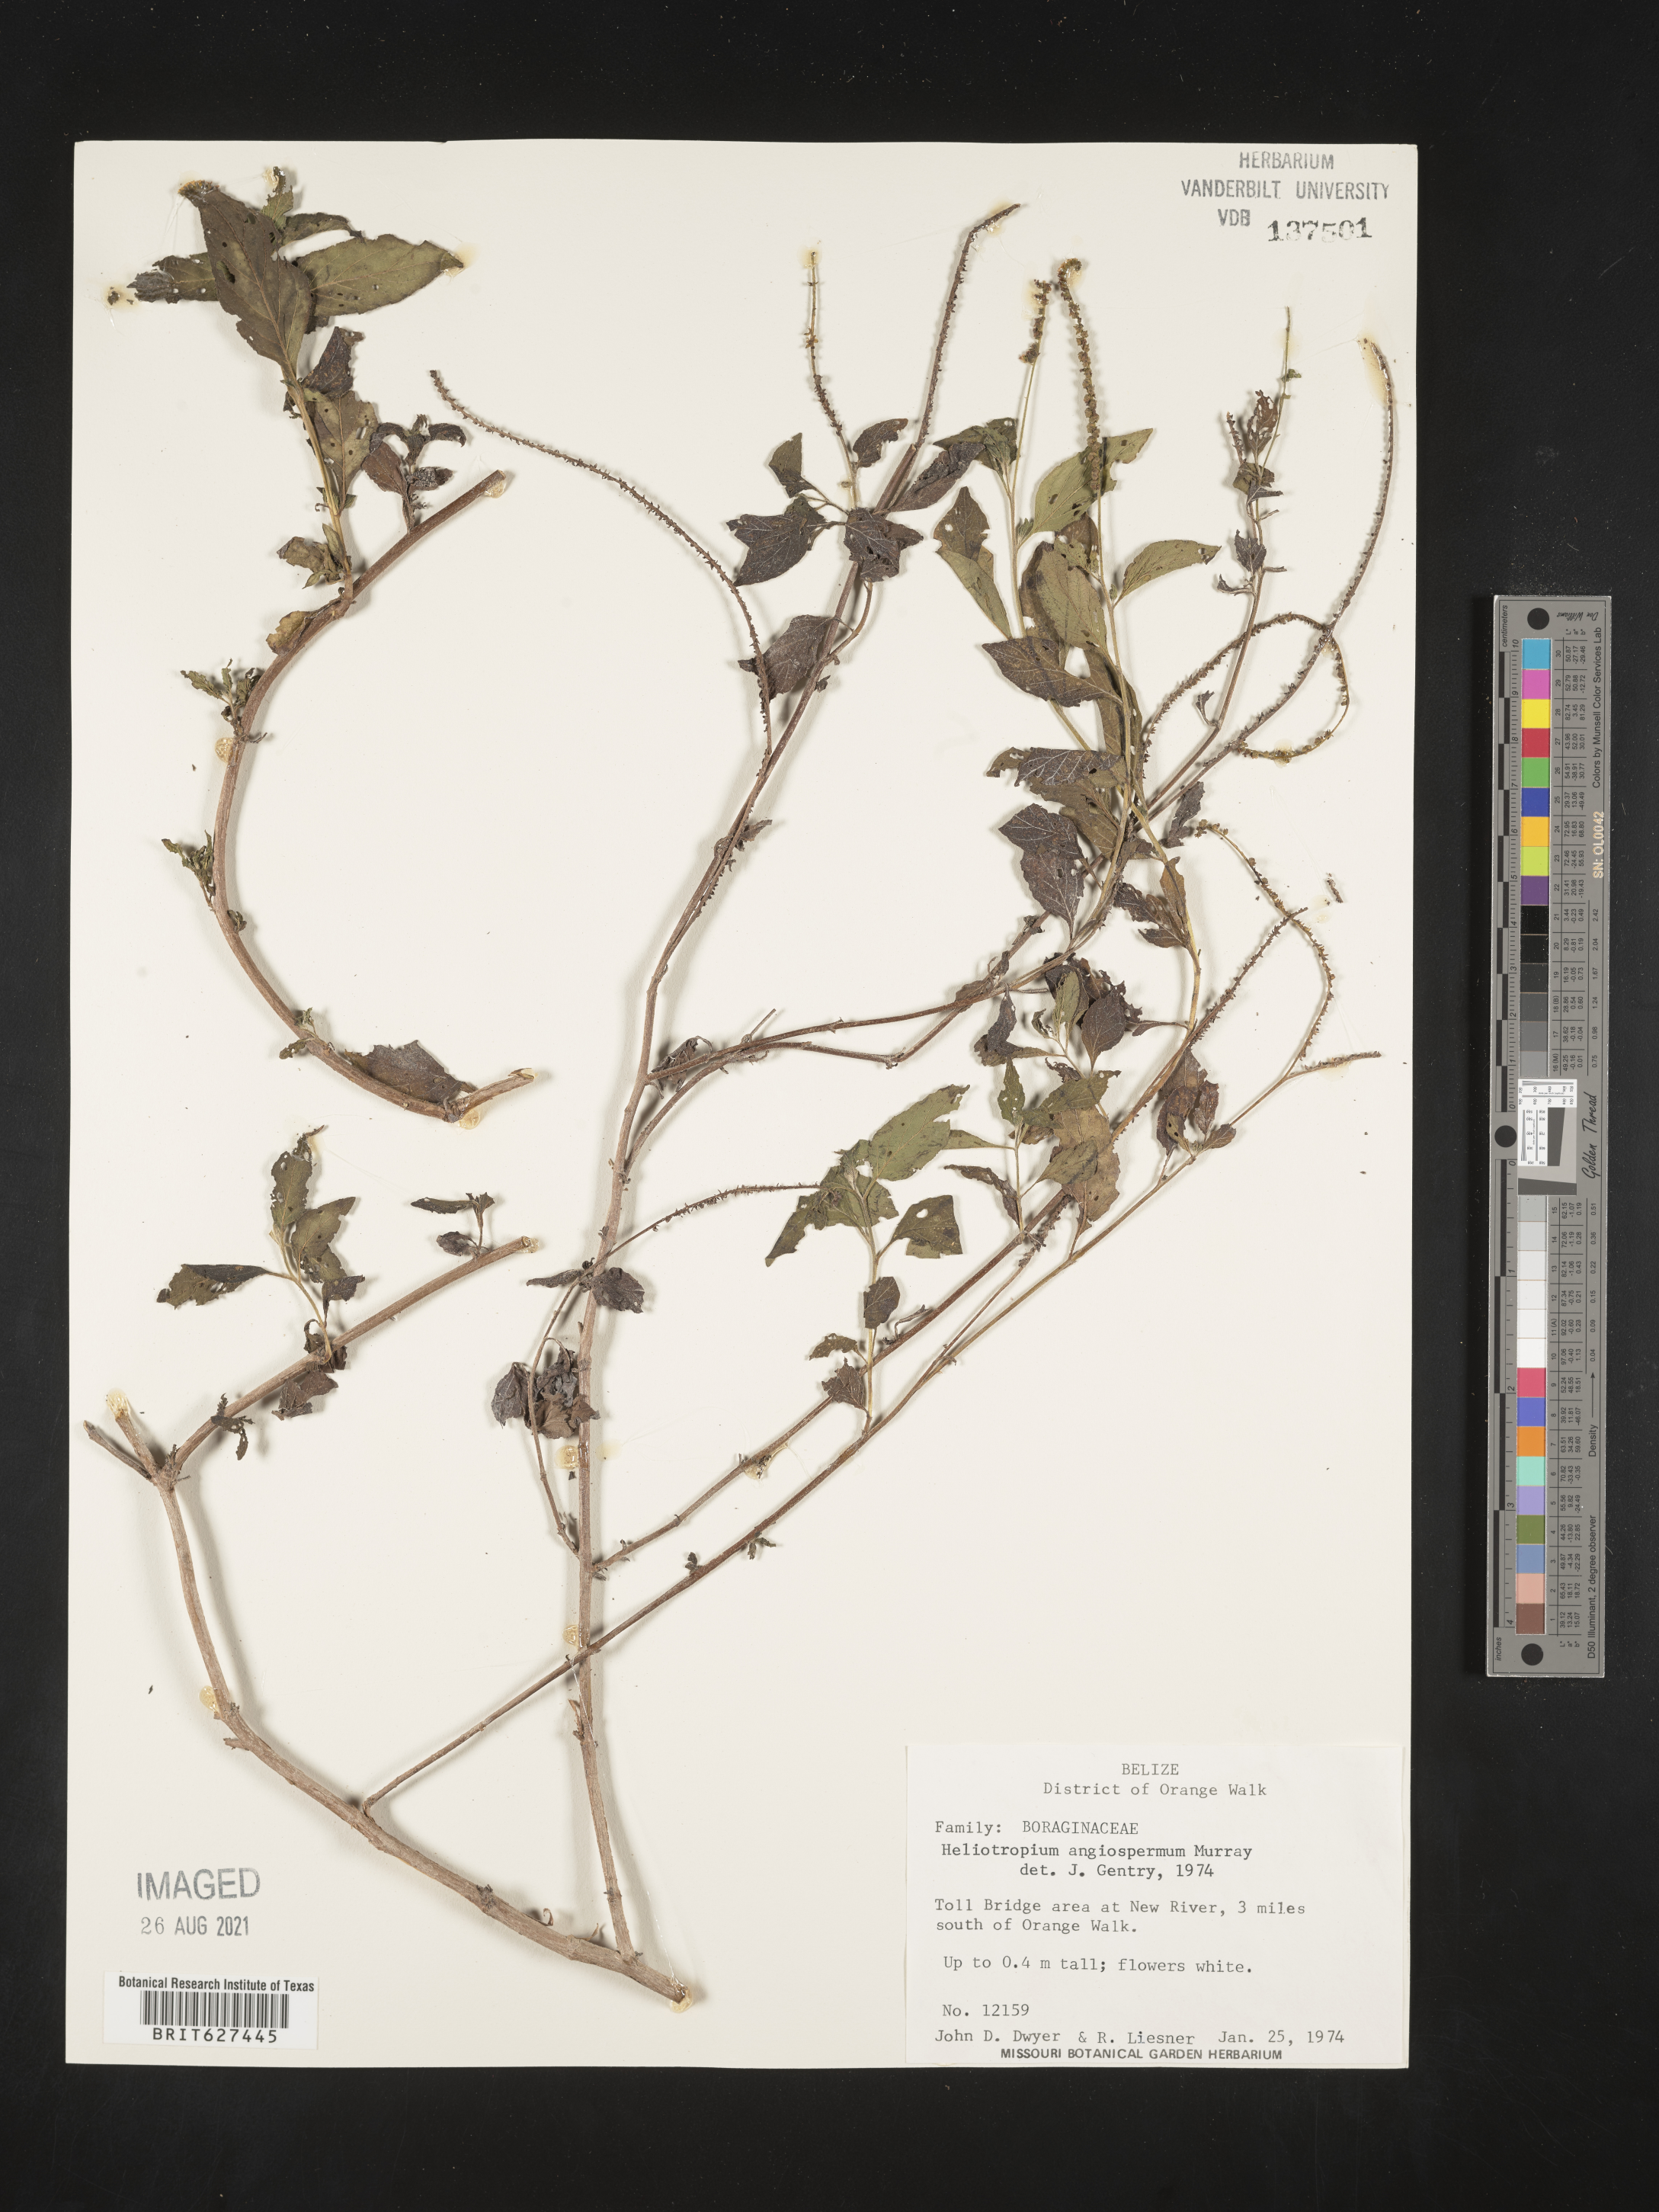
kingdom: Plantae
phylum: Tracheophyta
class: Magnoliopsida
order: Boraginales
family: Heliotropiaceae
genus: Heliotropium
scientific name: Heliotropium angiospermum
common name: Eye bright
